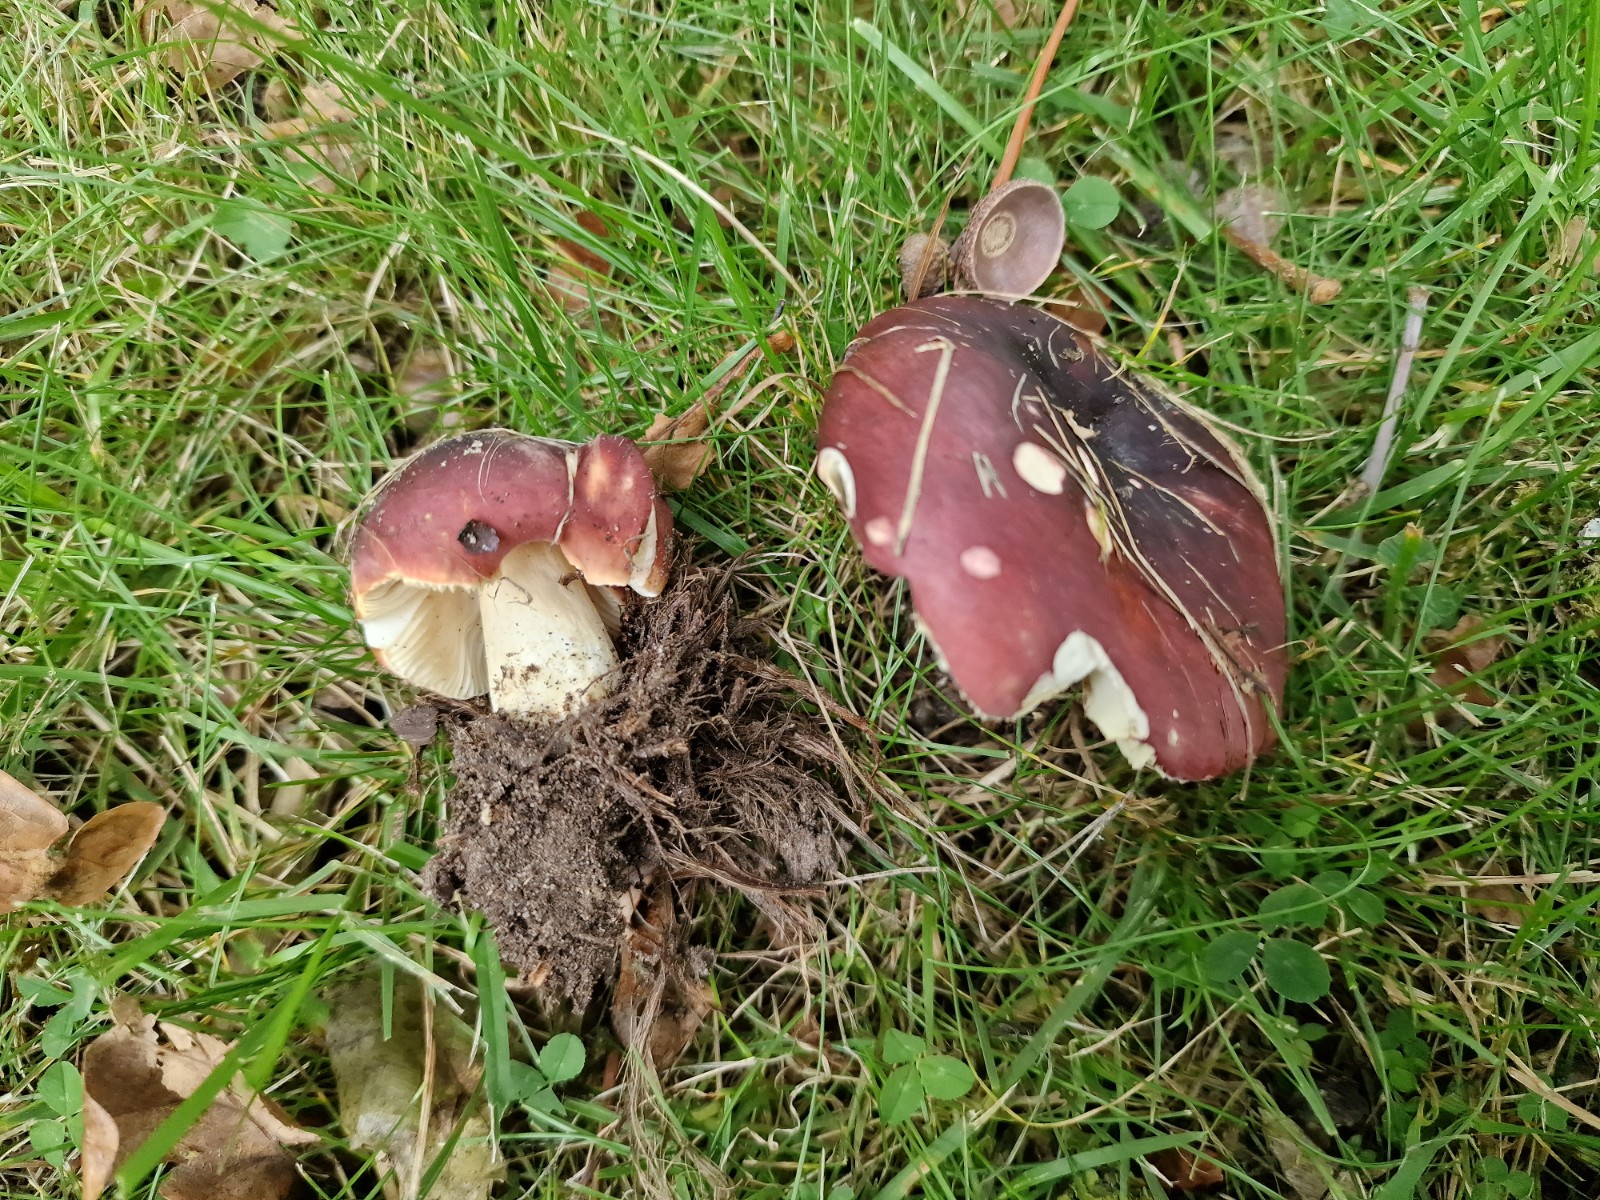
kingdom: Fungi
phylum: Basidiomycota
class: Agaricomycetes
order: Russulales
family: Russulaceae
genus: Russula
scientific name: Russula atropurpurea
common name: purpurbroget skørhat
